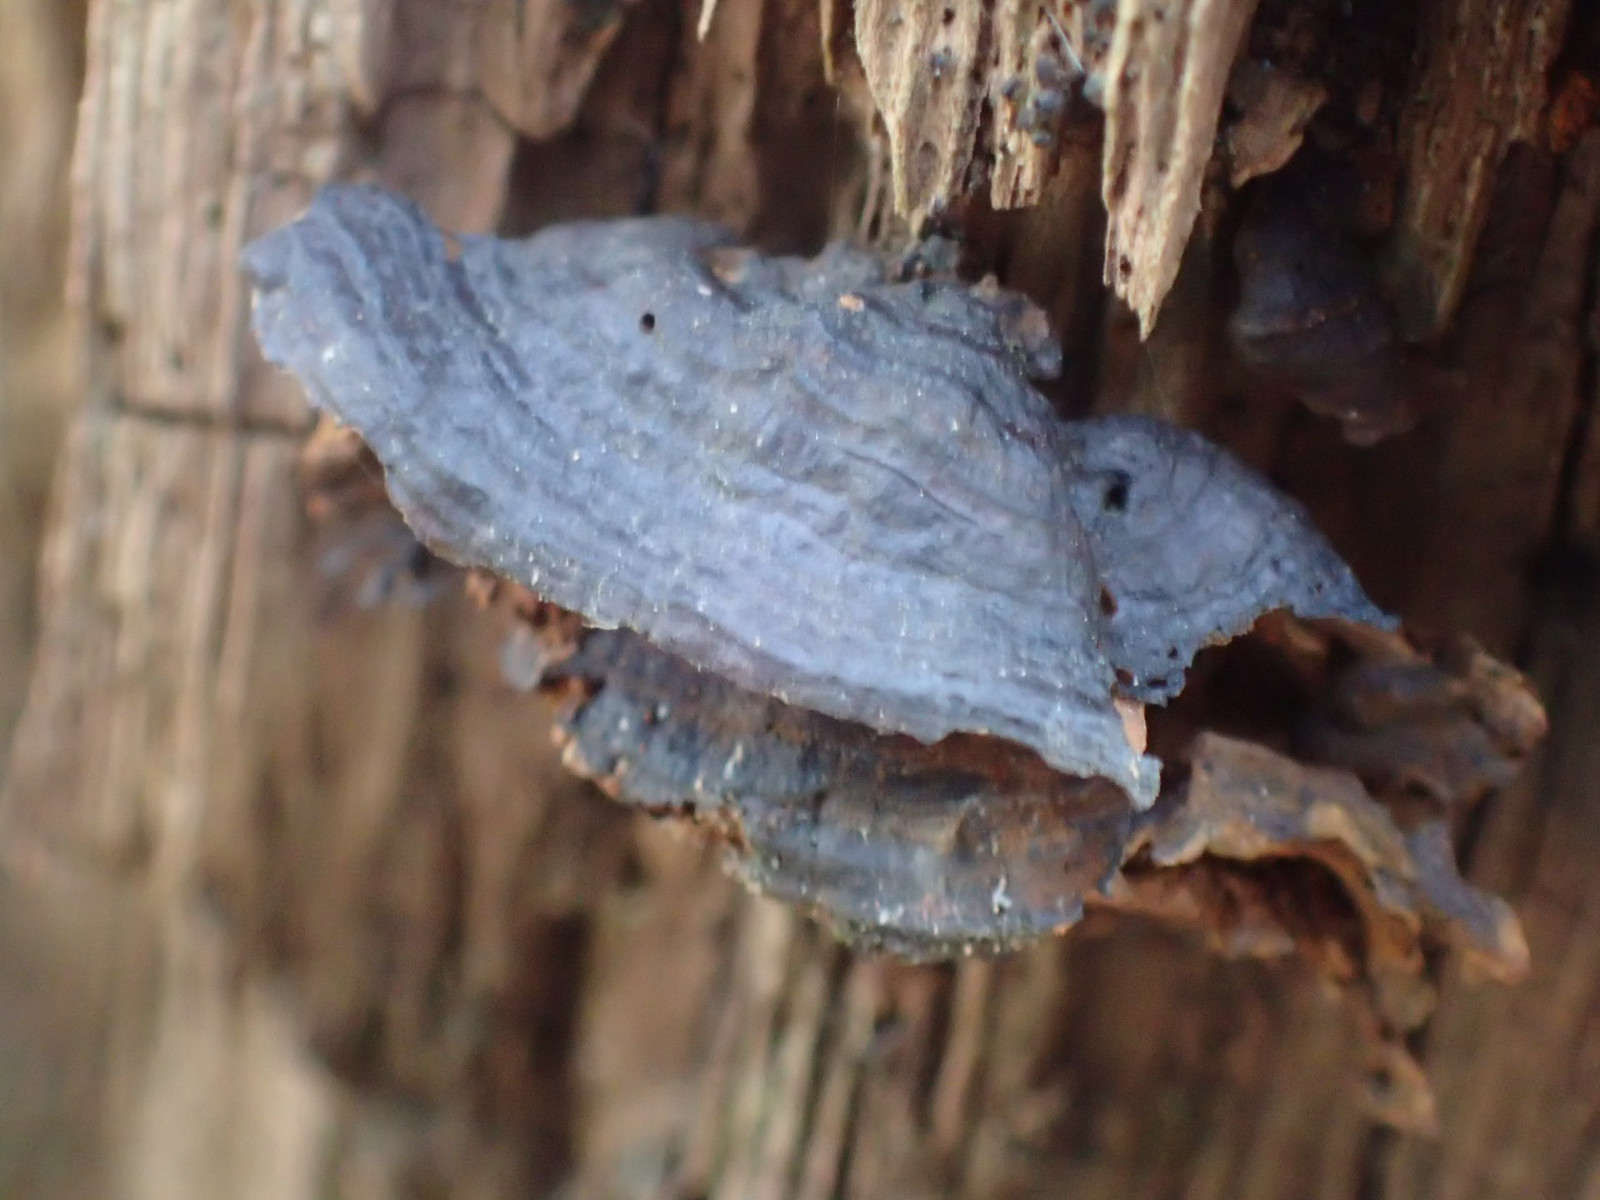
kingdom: Fungi
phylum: Basidiomycota
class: Agaricomycetes
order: Hymenochaetales
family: Hymenochaetaceae
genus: Hymenochaete
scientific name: Hymenochaete rubiginosa
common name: stiv ruslædersvamp
